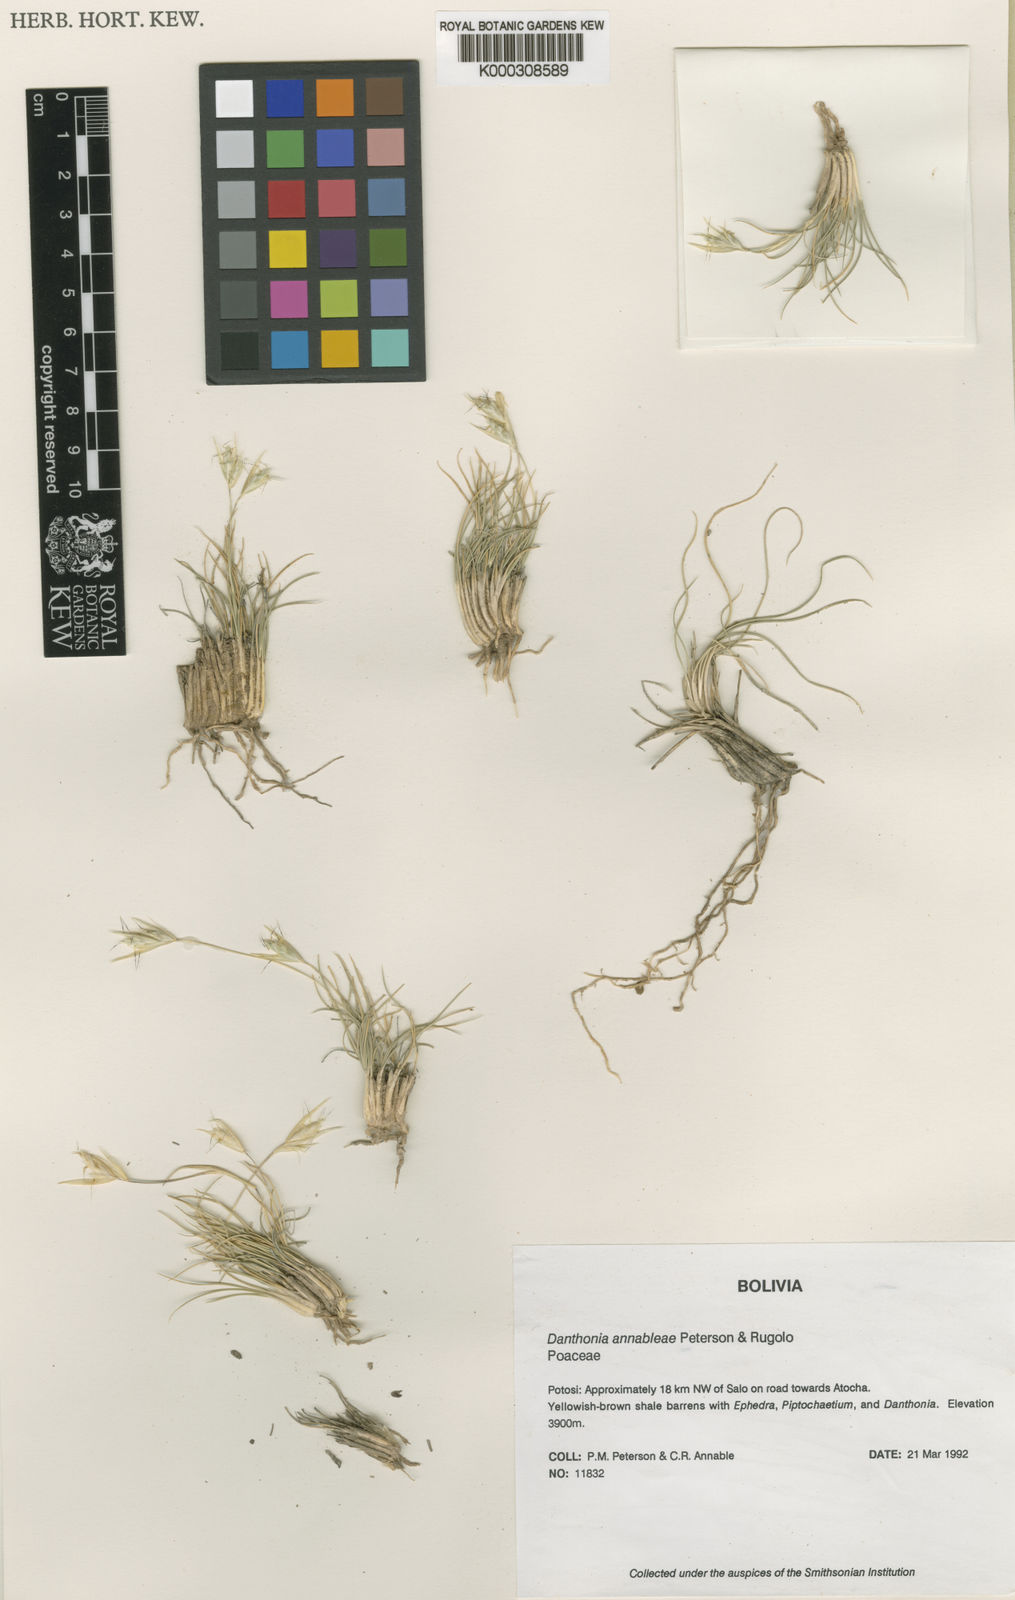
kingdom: Plantae
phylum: Tracheophyta
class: Liliopsida
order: Poales
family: Poaceae
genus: Danthonia
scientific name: Danthonia
